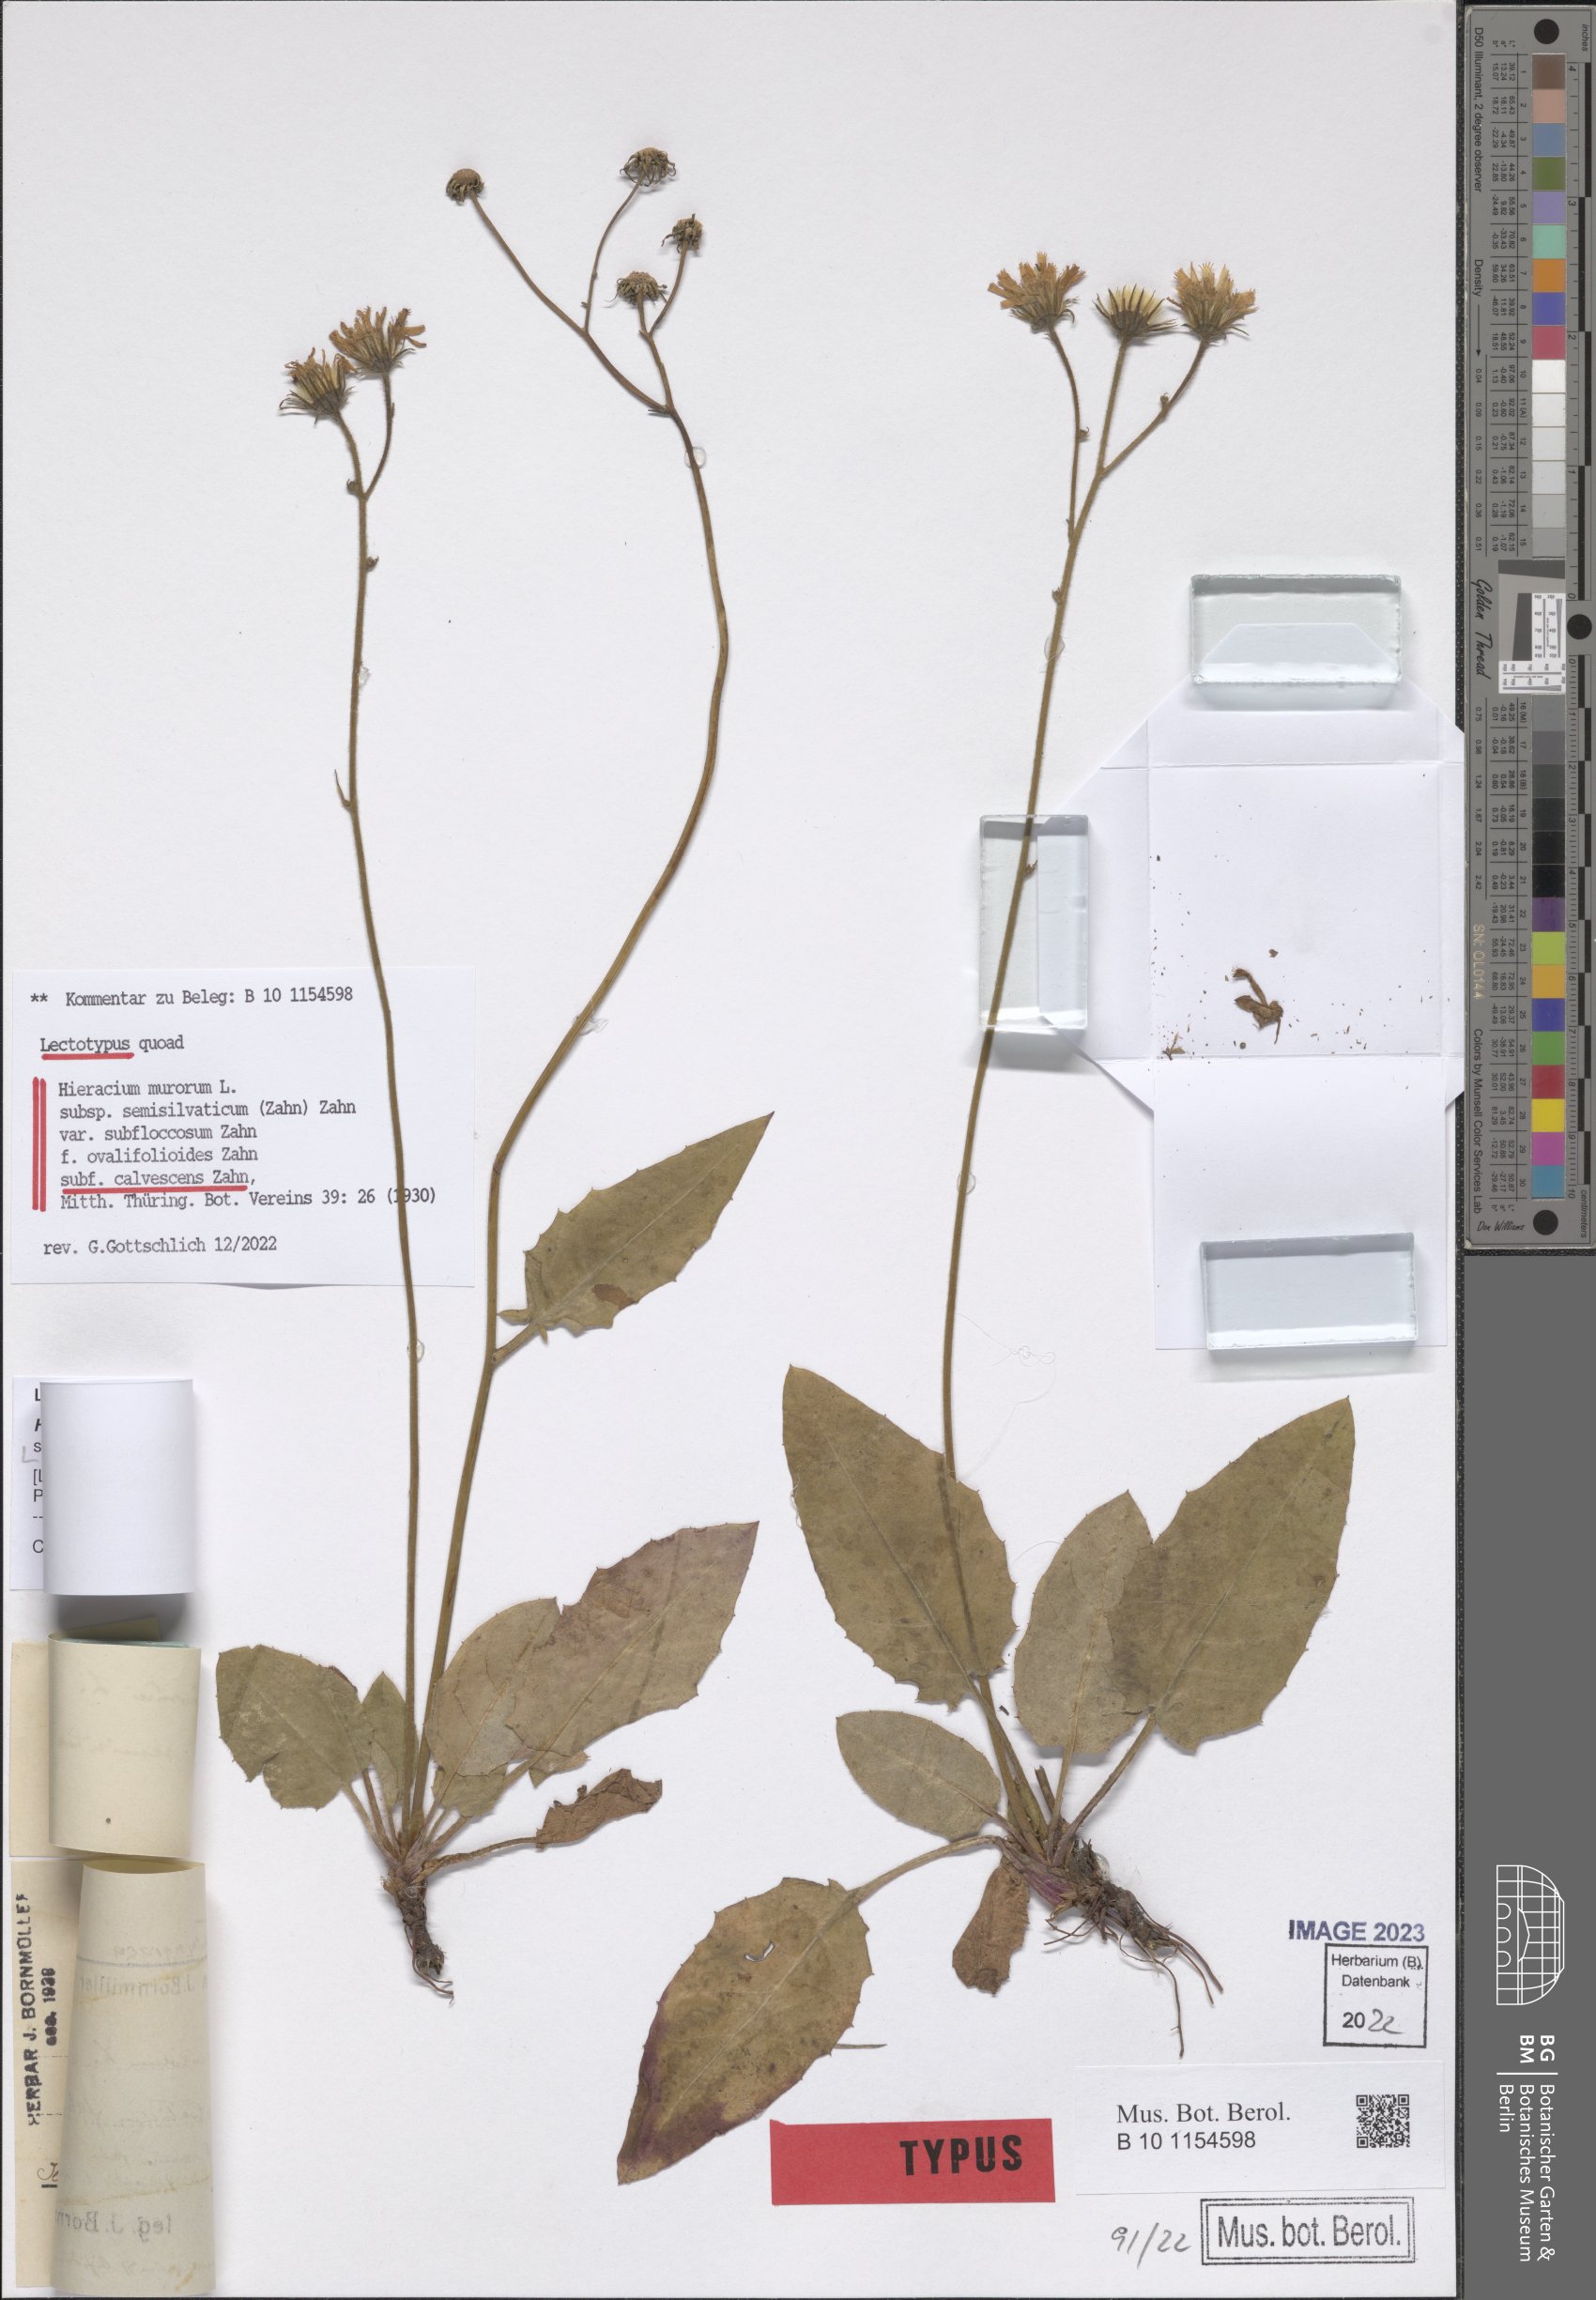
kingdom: Plantae
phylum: Tracheophyta
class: Magnoliopsida
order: Asterales
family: Asteraceae
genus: Hieracium
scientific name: Hieracium murorum
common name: Wall hawkweed
